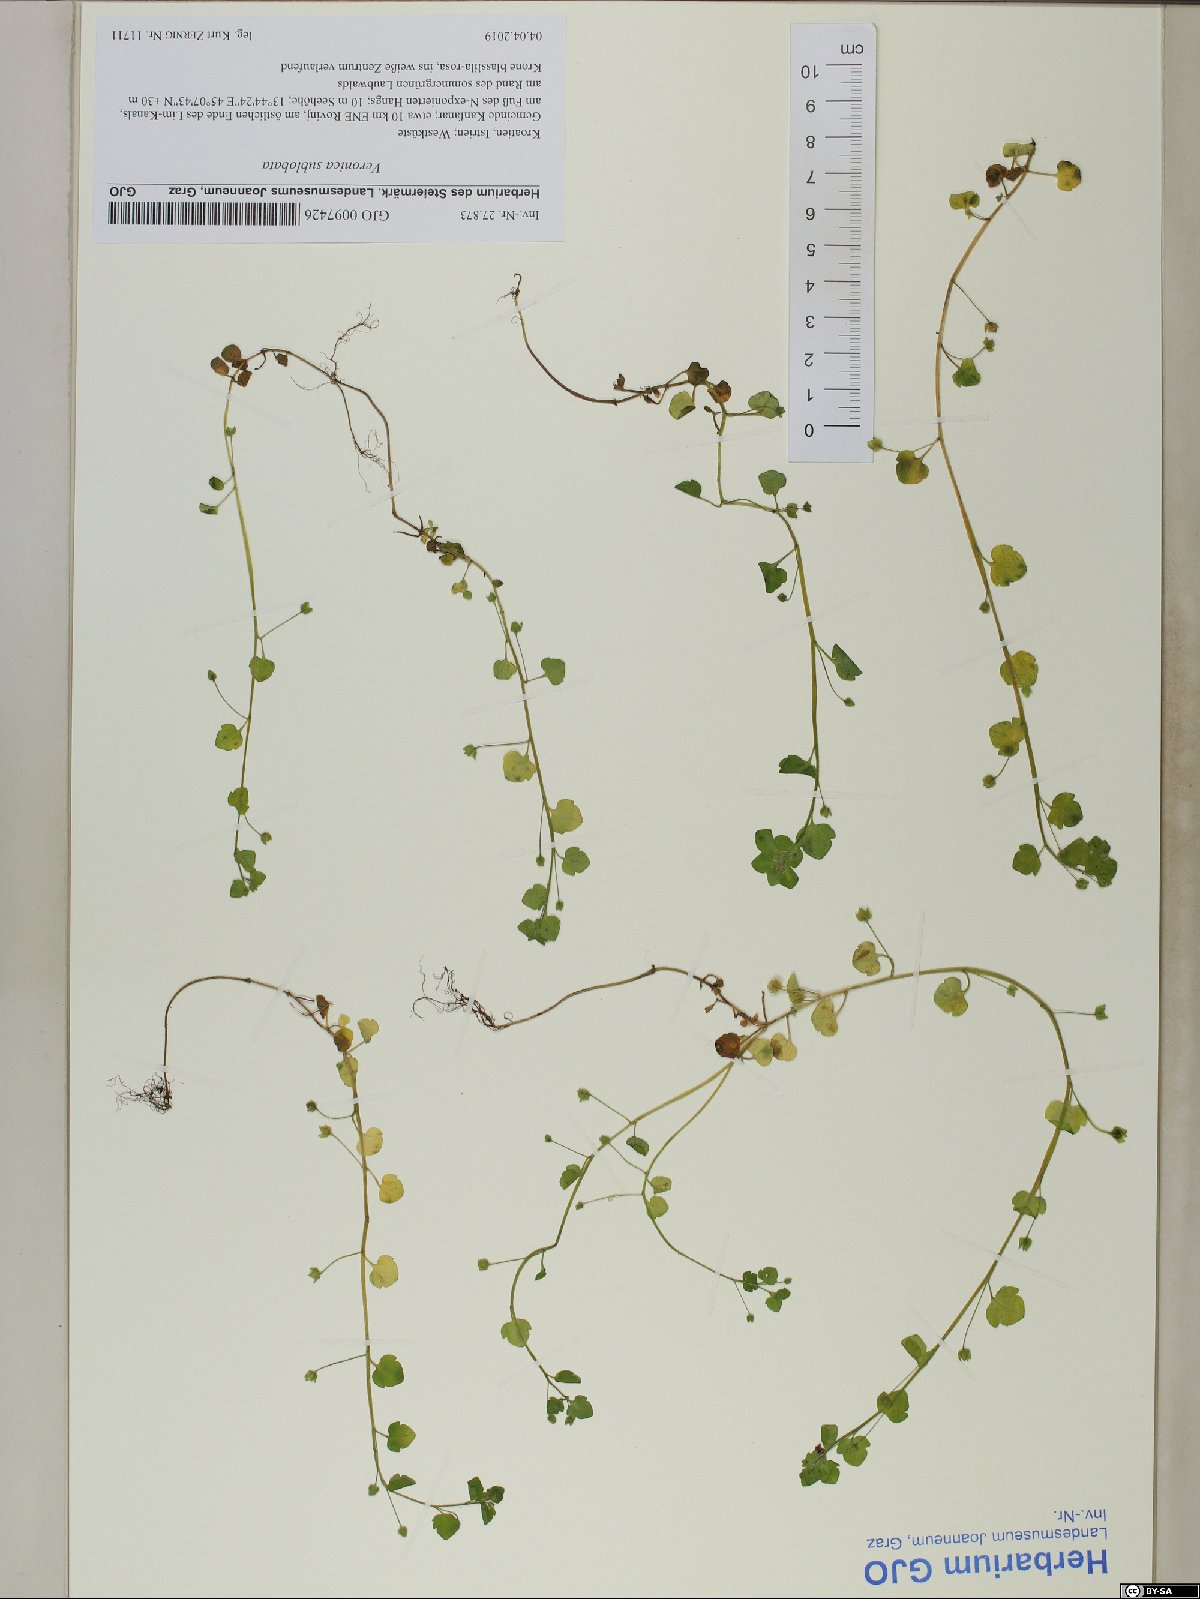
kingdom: Plantae
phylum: Tracheophyta
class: Magnoliopsida
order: Lamiales
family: Plantaginaceae
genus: Veronica
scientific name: Veronica sublobata
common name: False ivy-leaved speedwell
